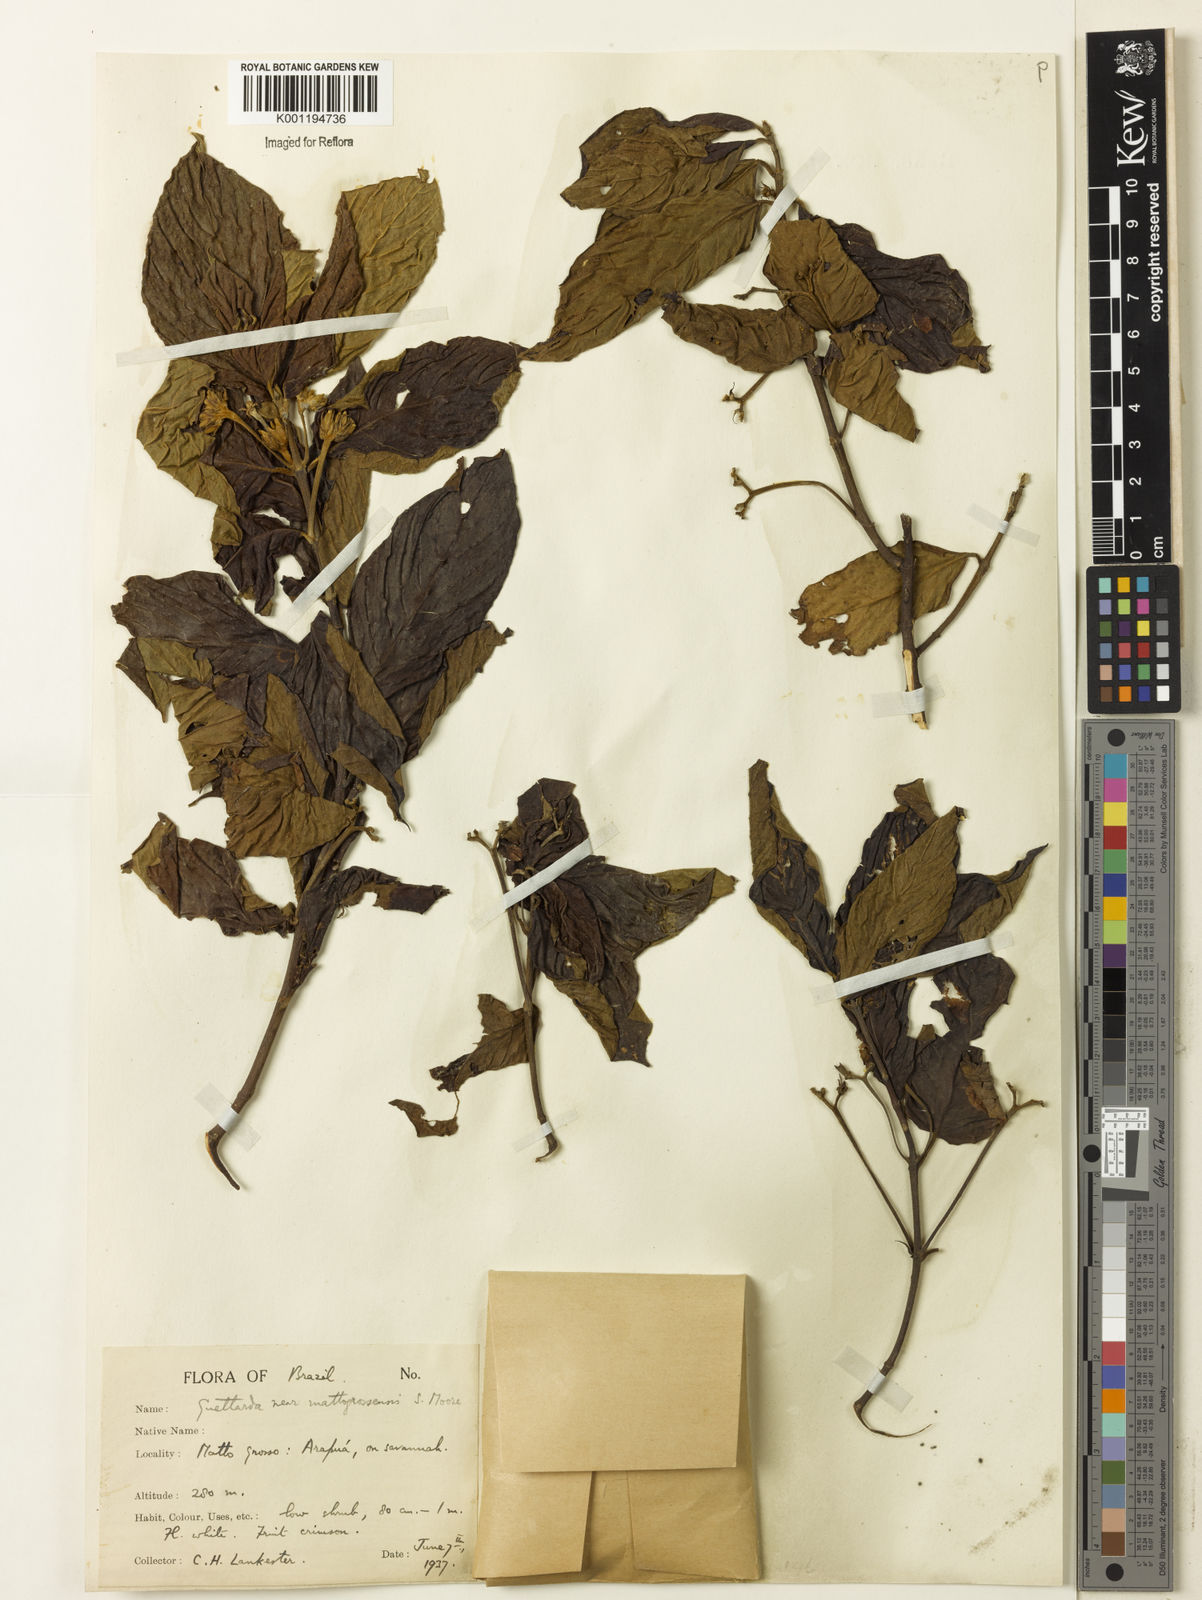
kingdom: Plantae
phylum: Tracheophyta
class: Magnoliopsida
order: Gentianales
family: Rubiaceae
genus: Guettarda
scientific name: Guettarda mattogrossensis
